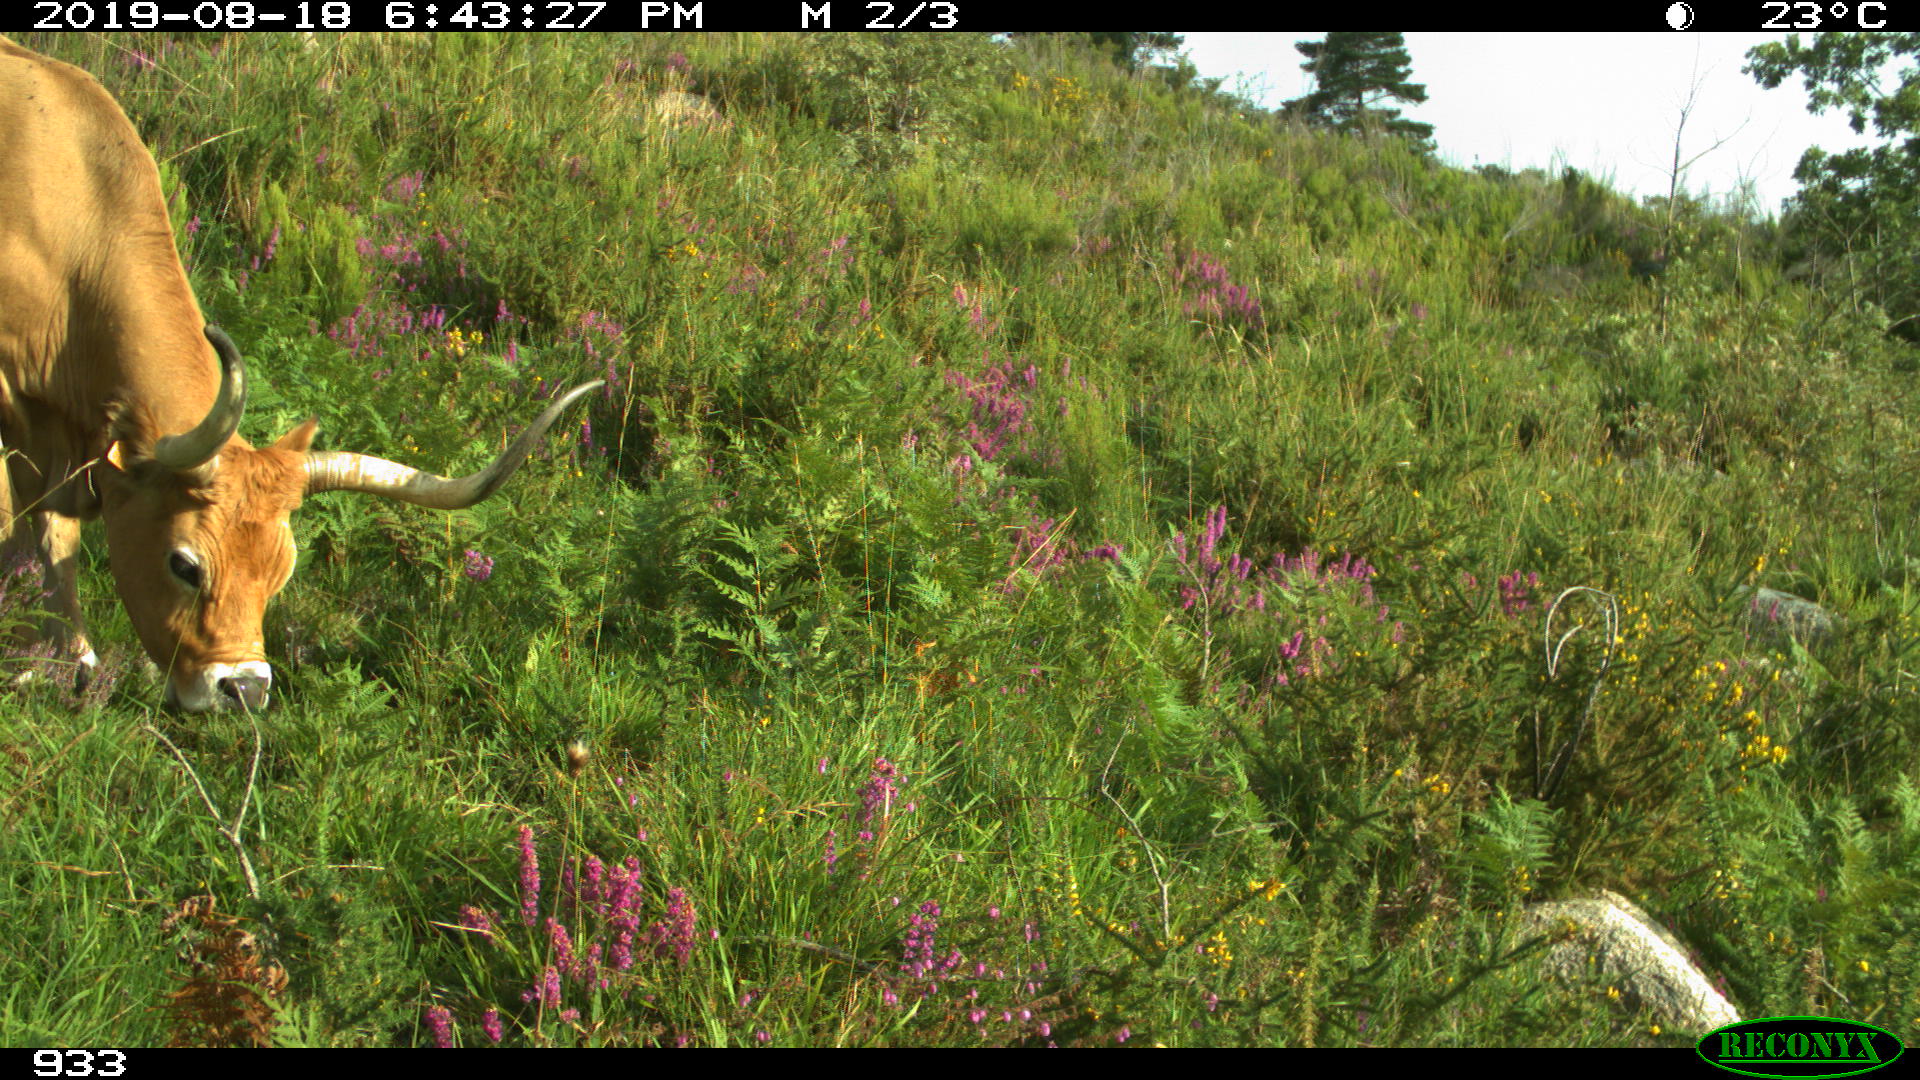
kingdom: Animalia
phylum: Chordata
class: Mammalia
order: Artiodactyla
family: Bovidae
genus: Bos
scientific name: Bos taurus
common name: Domesticated cattle
